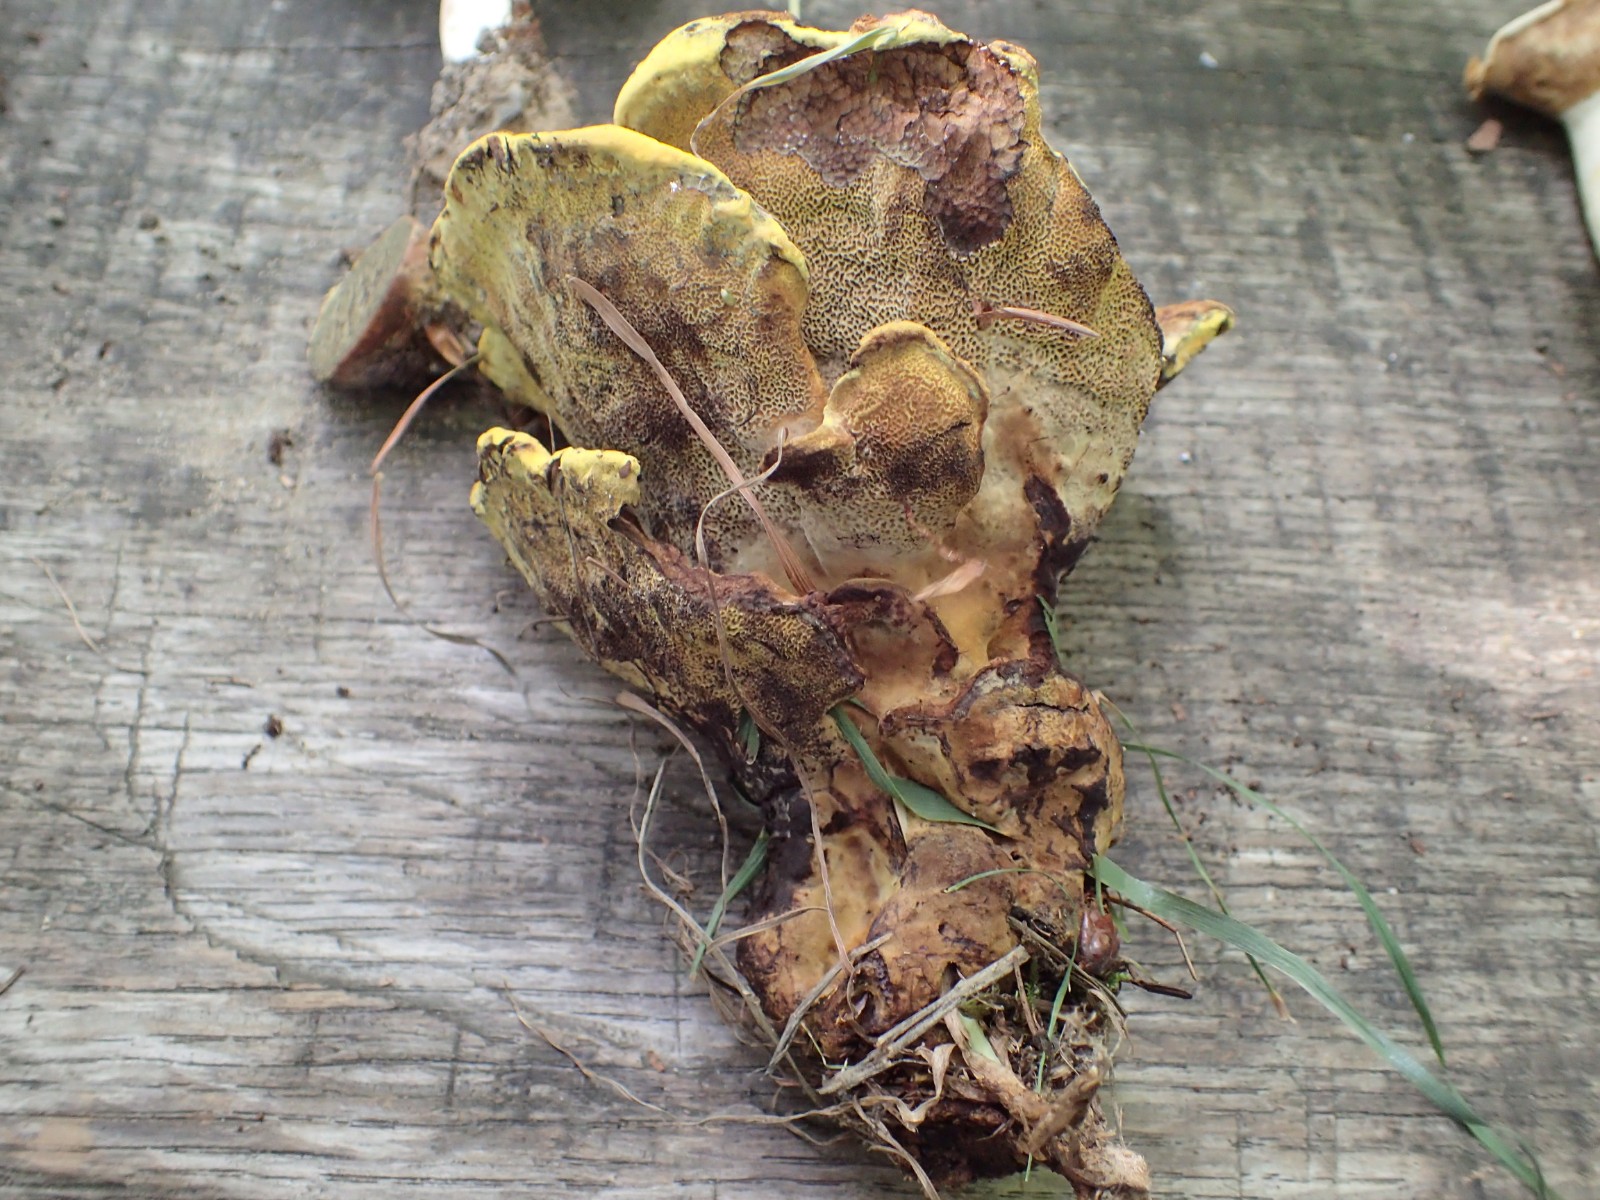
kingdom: Fungi
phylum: Basidiomycota
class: Agaricomycetes
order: Polyporales
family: Laetiporaceae
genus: Phaeolus
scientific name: Phaeolus schweinitzii
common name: brunporesvamp
